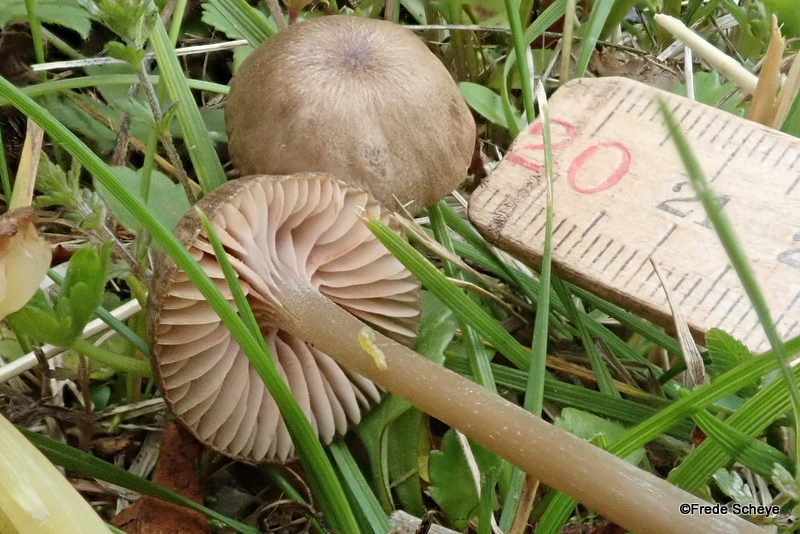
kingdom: Fungi
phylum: Basidiomycota
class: Agaricomycetes
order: Agaricales
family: Entolomataceae
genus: Entoloma
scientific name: Entoloma
